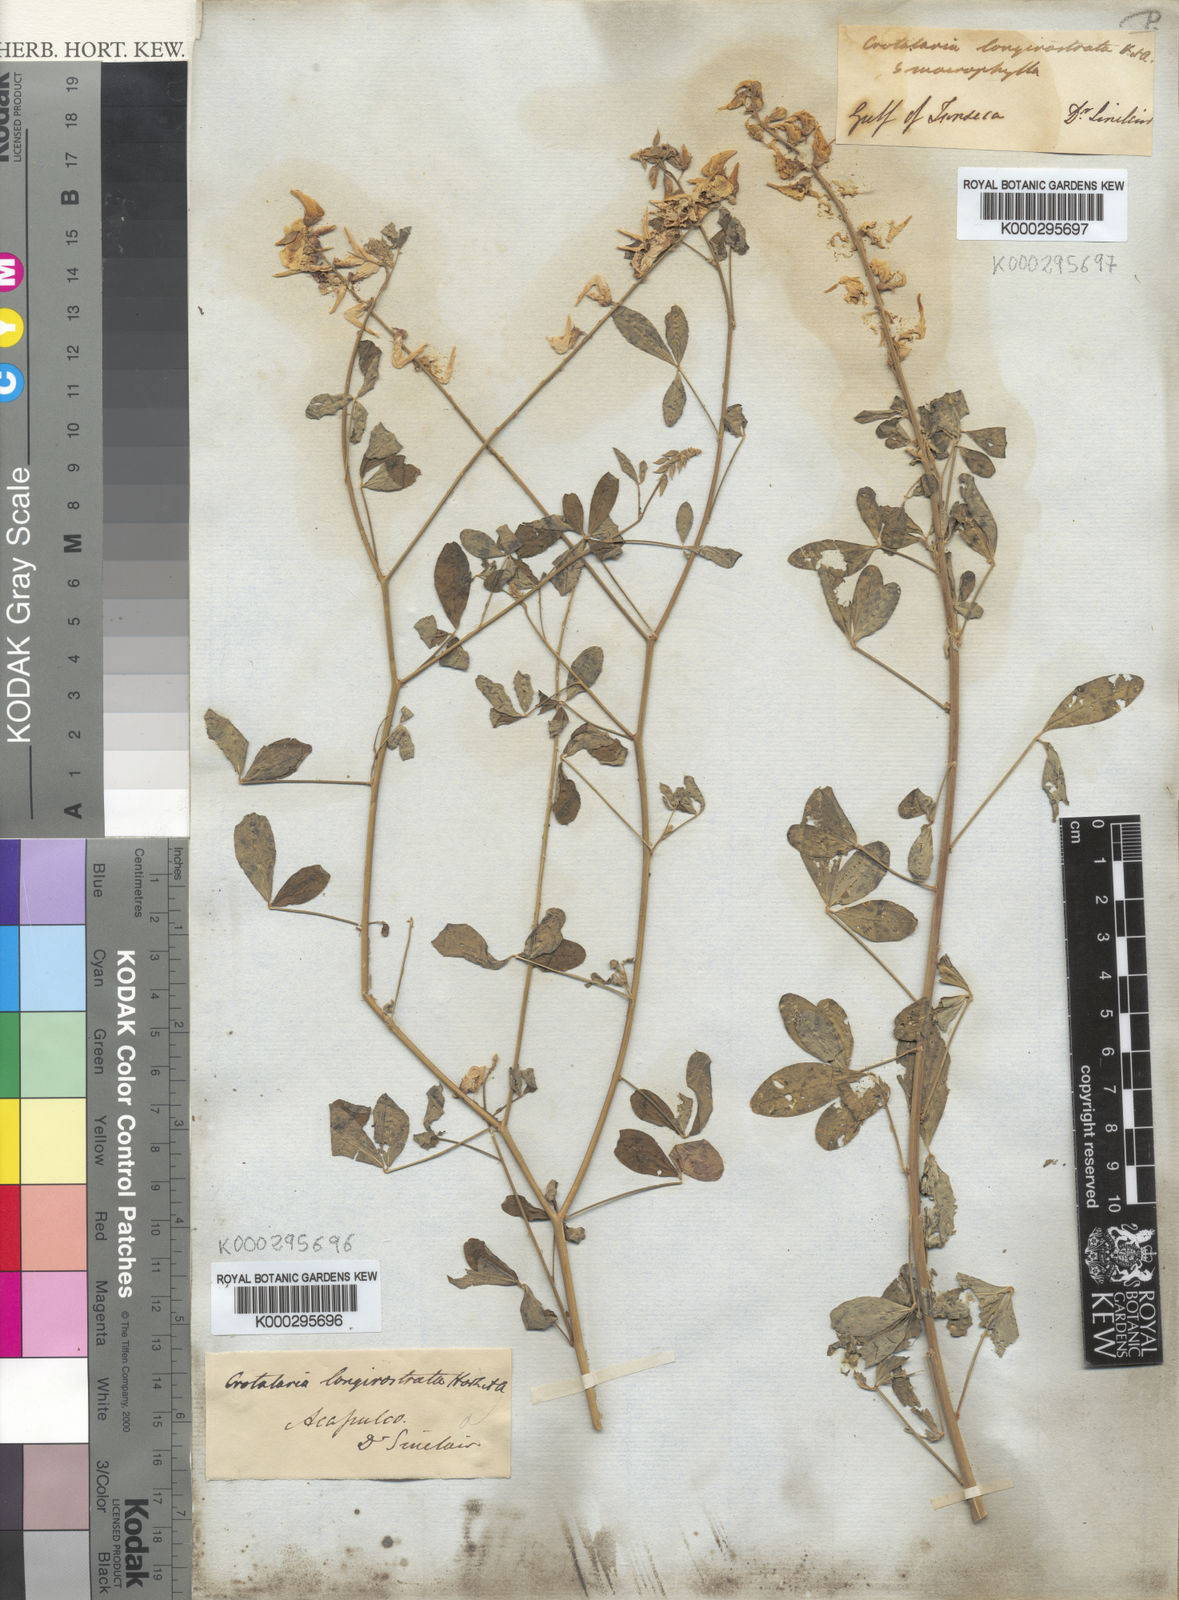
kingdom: Plantae
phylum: Tracheophyta
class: Magnoliopsida
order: Fabales
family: Fabaceae
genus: Crotalaria
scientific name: Crotalaria
